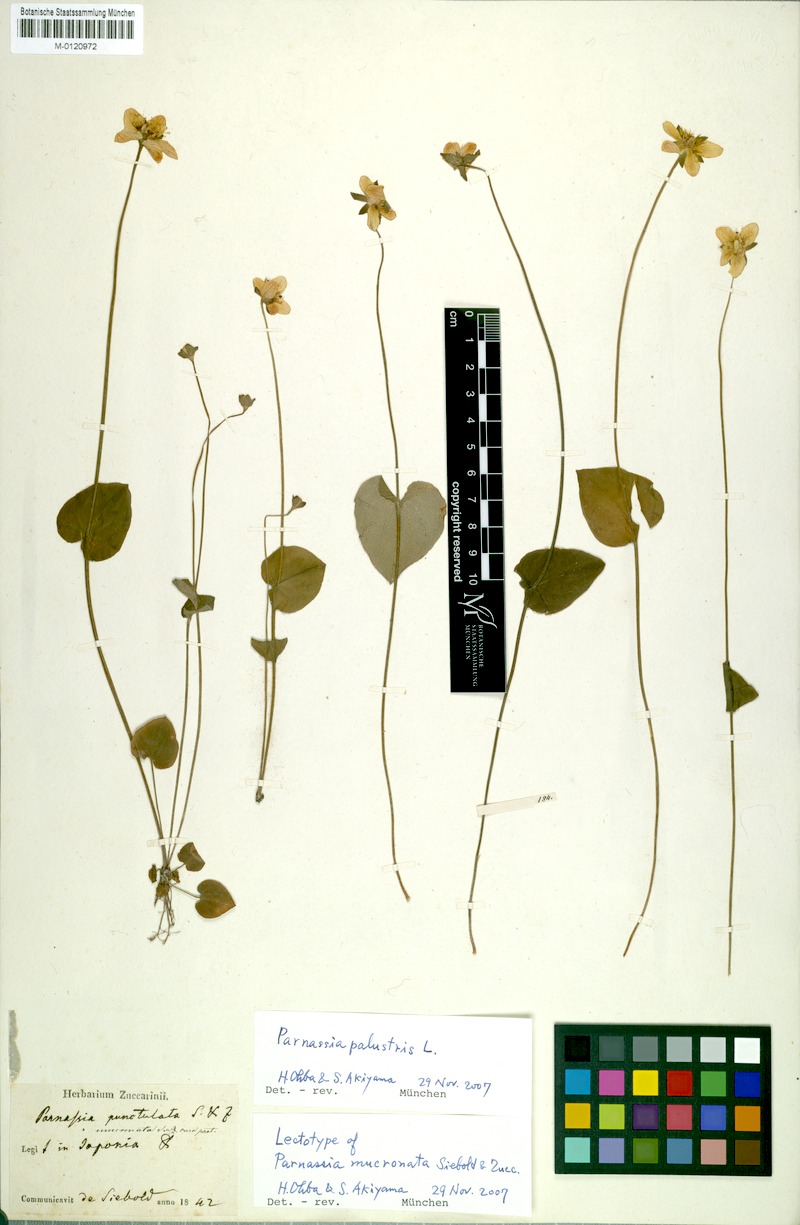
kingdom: Plantae
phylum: Tracheophyta
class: Magnoliopsida
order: Celastrales
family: Parnassiaceae
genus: Parnassia
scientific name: Parnassia palustris
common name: Grass-of-parnassus
